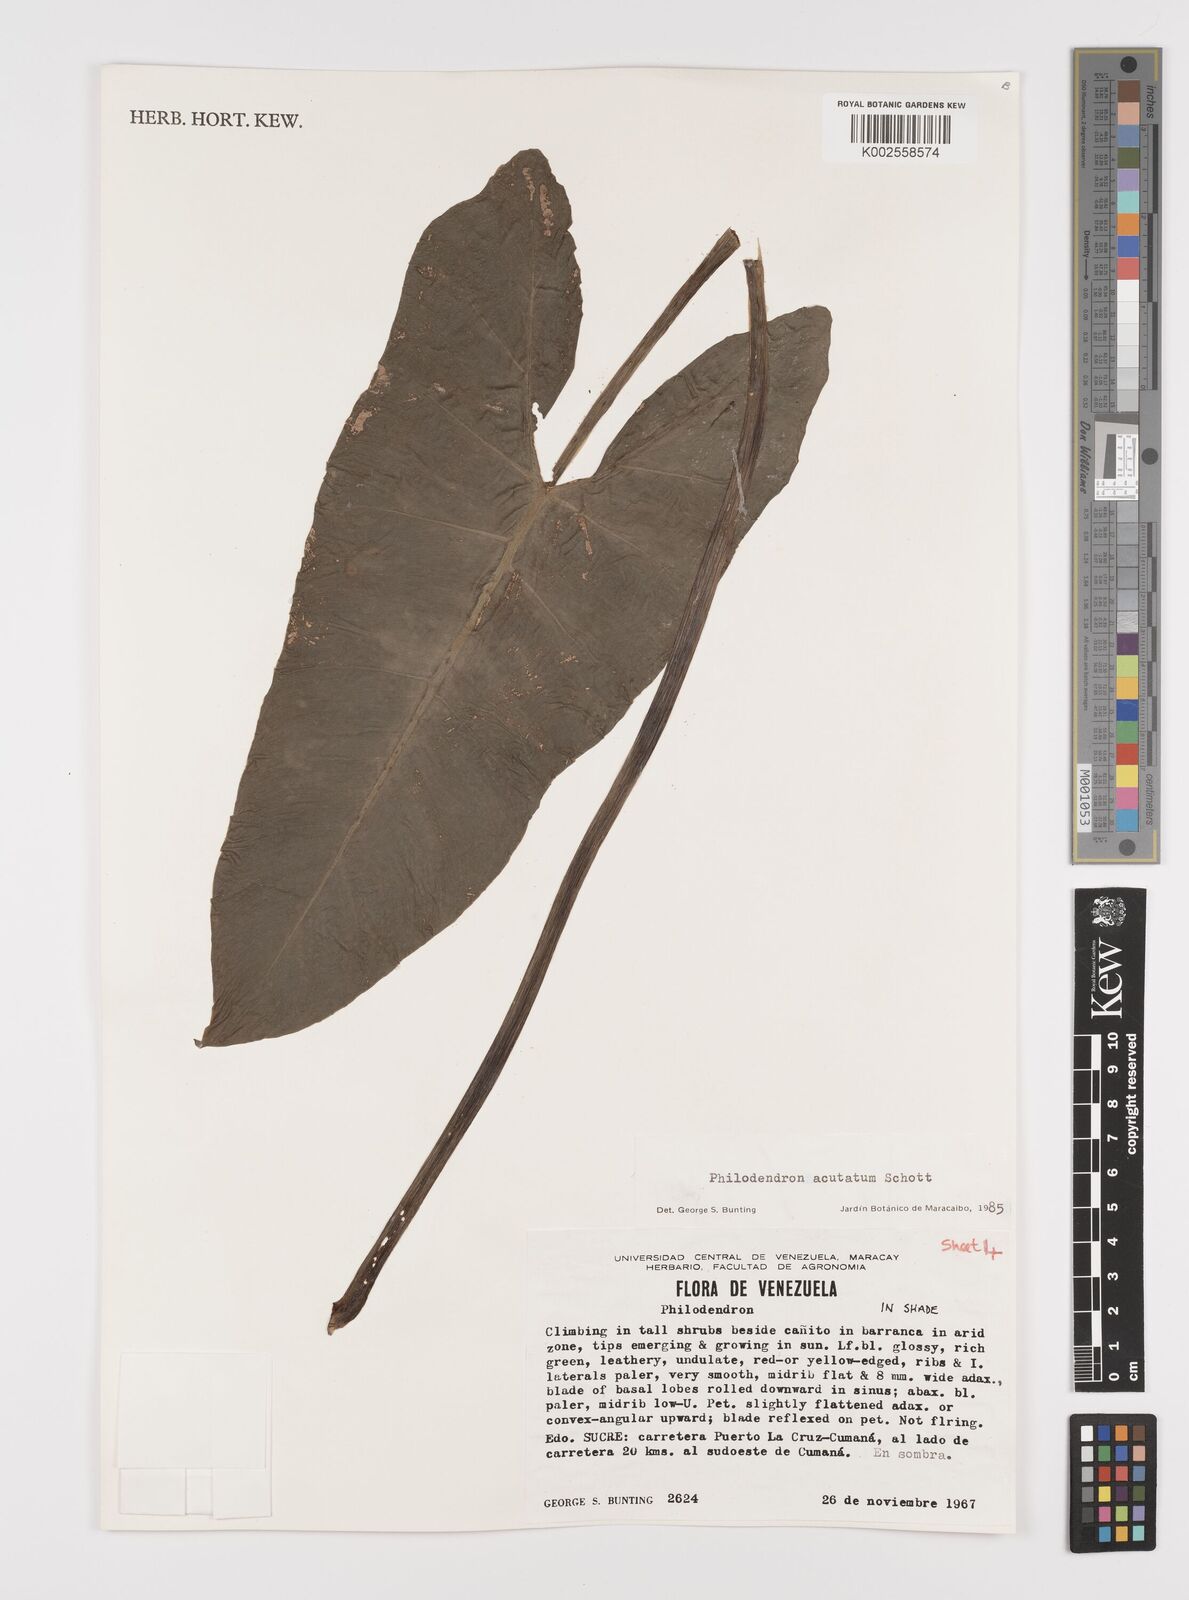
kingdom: Plantae
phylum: Tracheophyta
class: Liliopsida
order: Alismatales
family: Araceae
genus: Philodendron
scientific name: Philodendron quinquenervium
